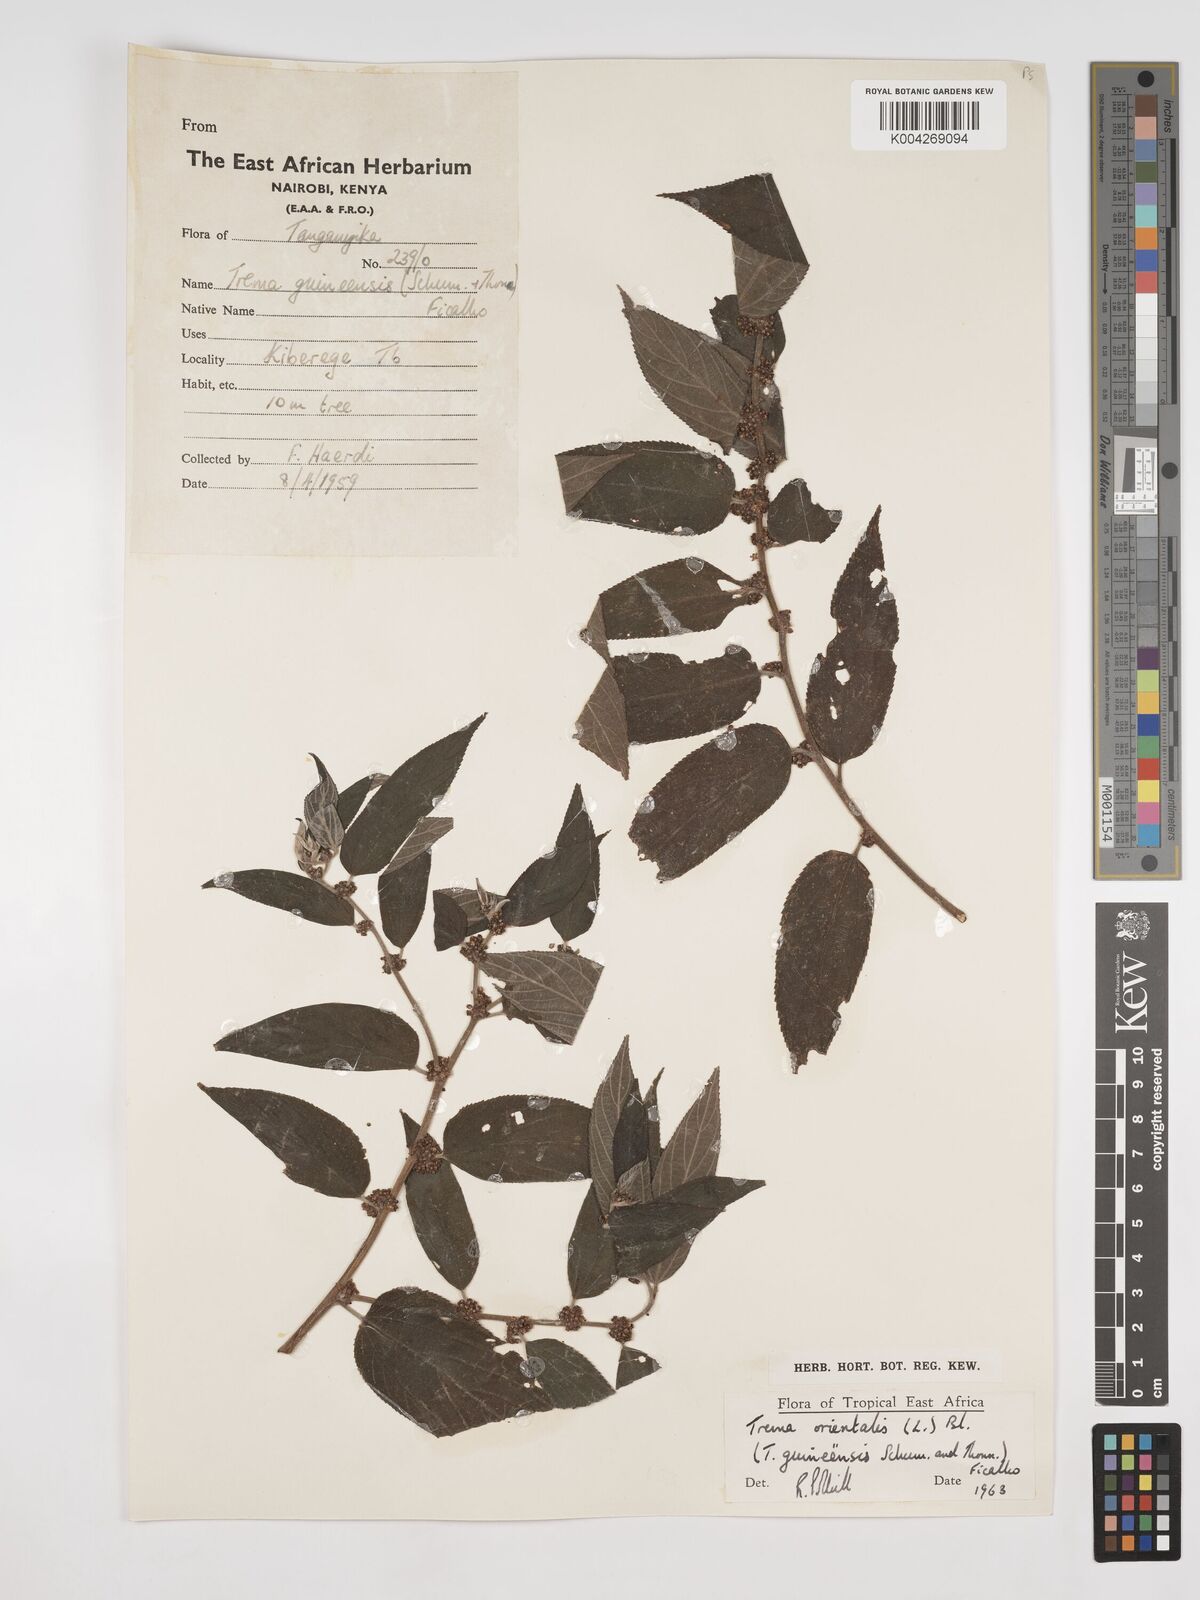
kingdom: Plantae
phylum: Tracheophyta
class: Magnoliopsida
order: Rosales
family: Cannabaceae
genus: Trema
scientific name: Trema orientale
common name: Indian charcoal tree
